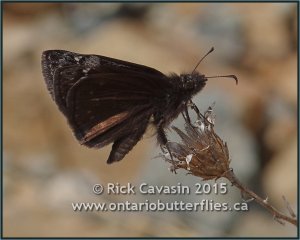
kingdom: Animalia
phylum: Arthropoda
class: Insecta
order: Lepidoptera
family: Hesperiidae
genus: Gesta
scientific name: Gesta
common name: Wild Indigo Duskywing
